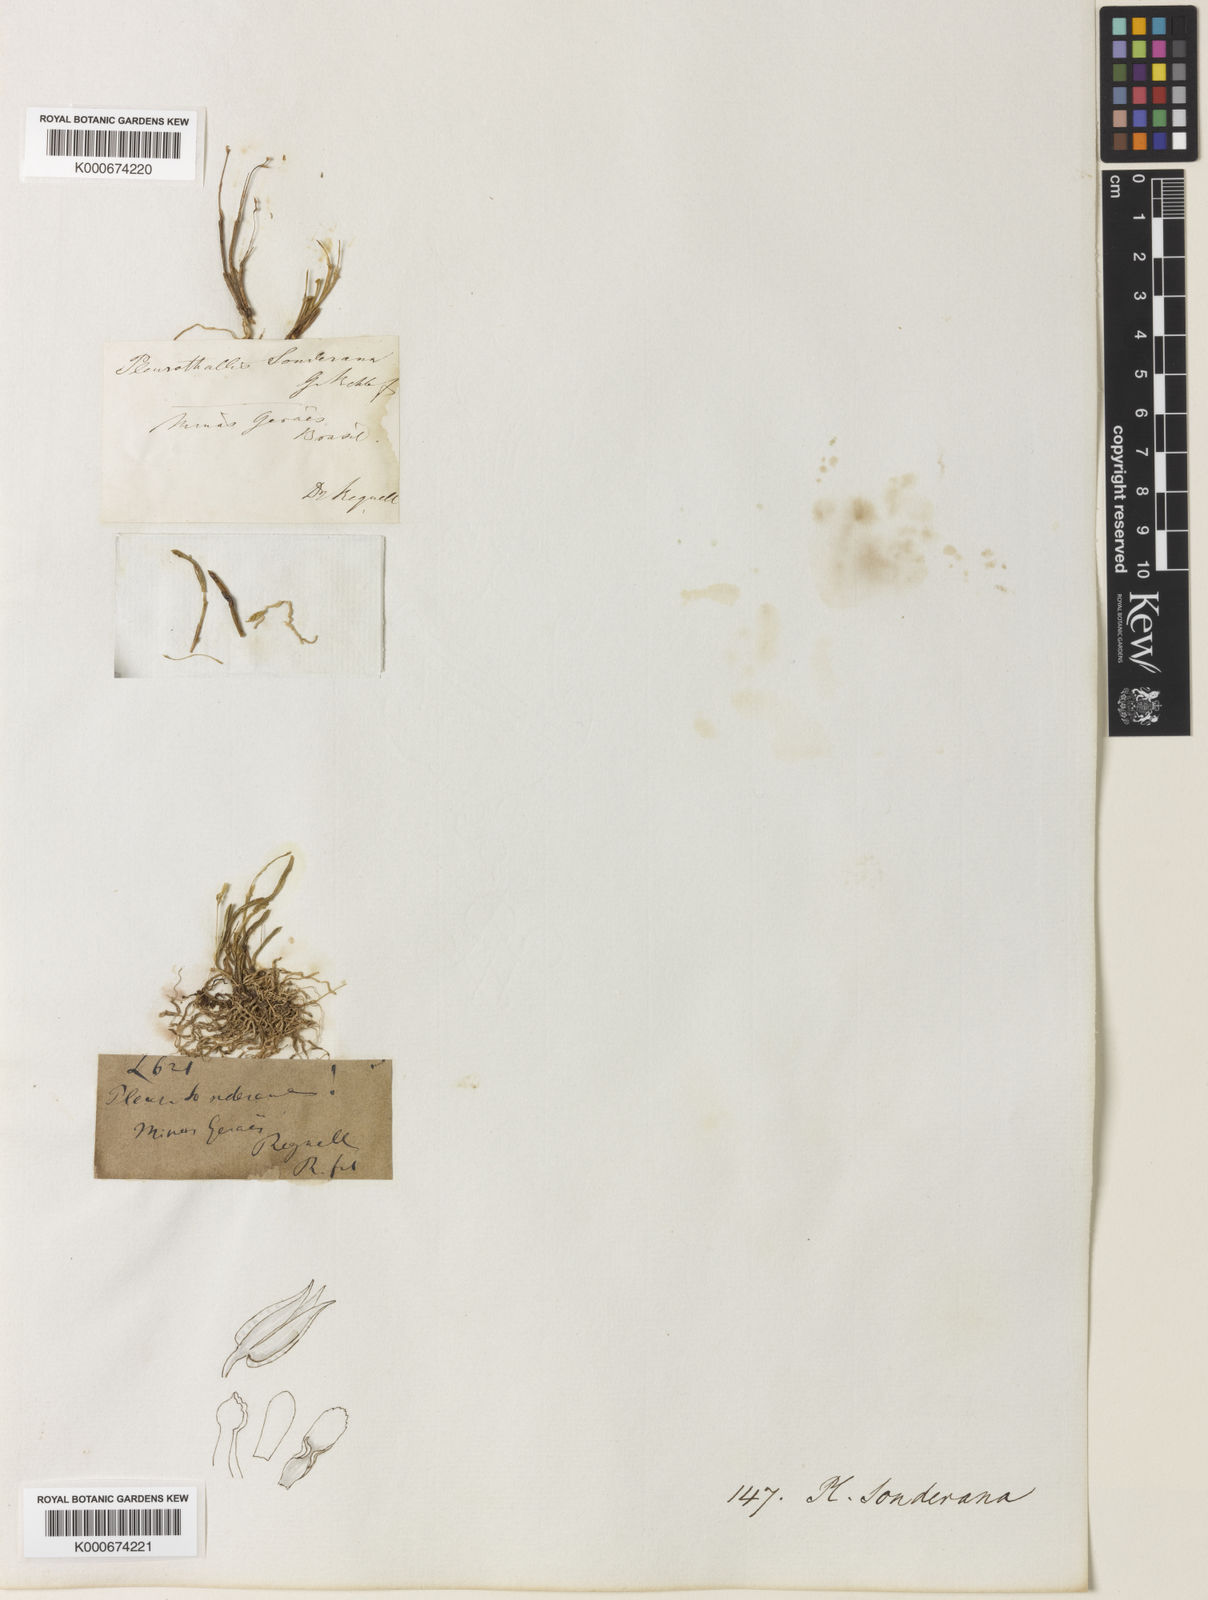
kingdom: Plantae
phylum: Tracheophyta
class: Liliopsida
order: Asparagales
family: Orchidaceae
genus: Acianthera
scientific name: Acianthera sonderiana
